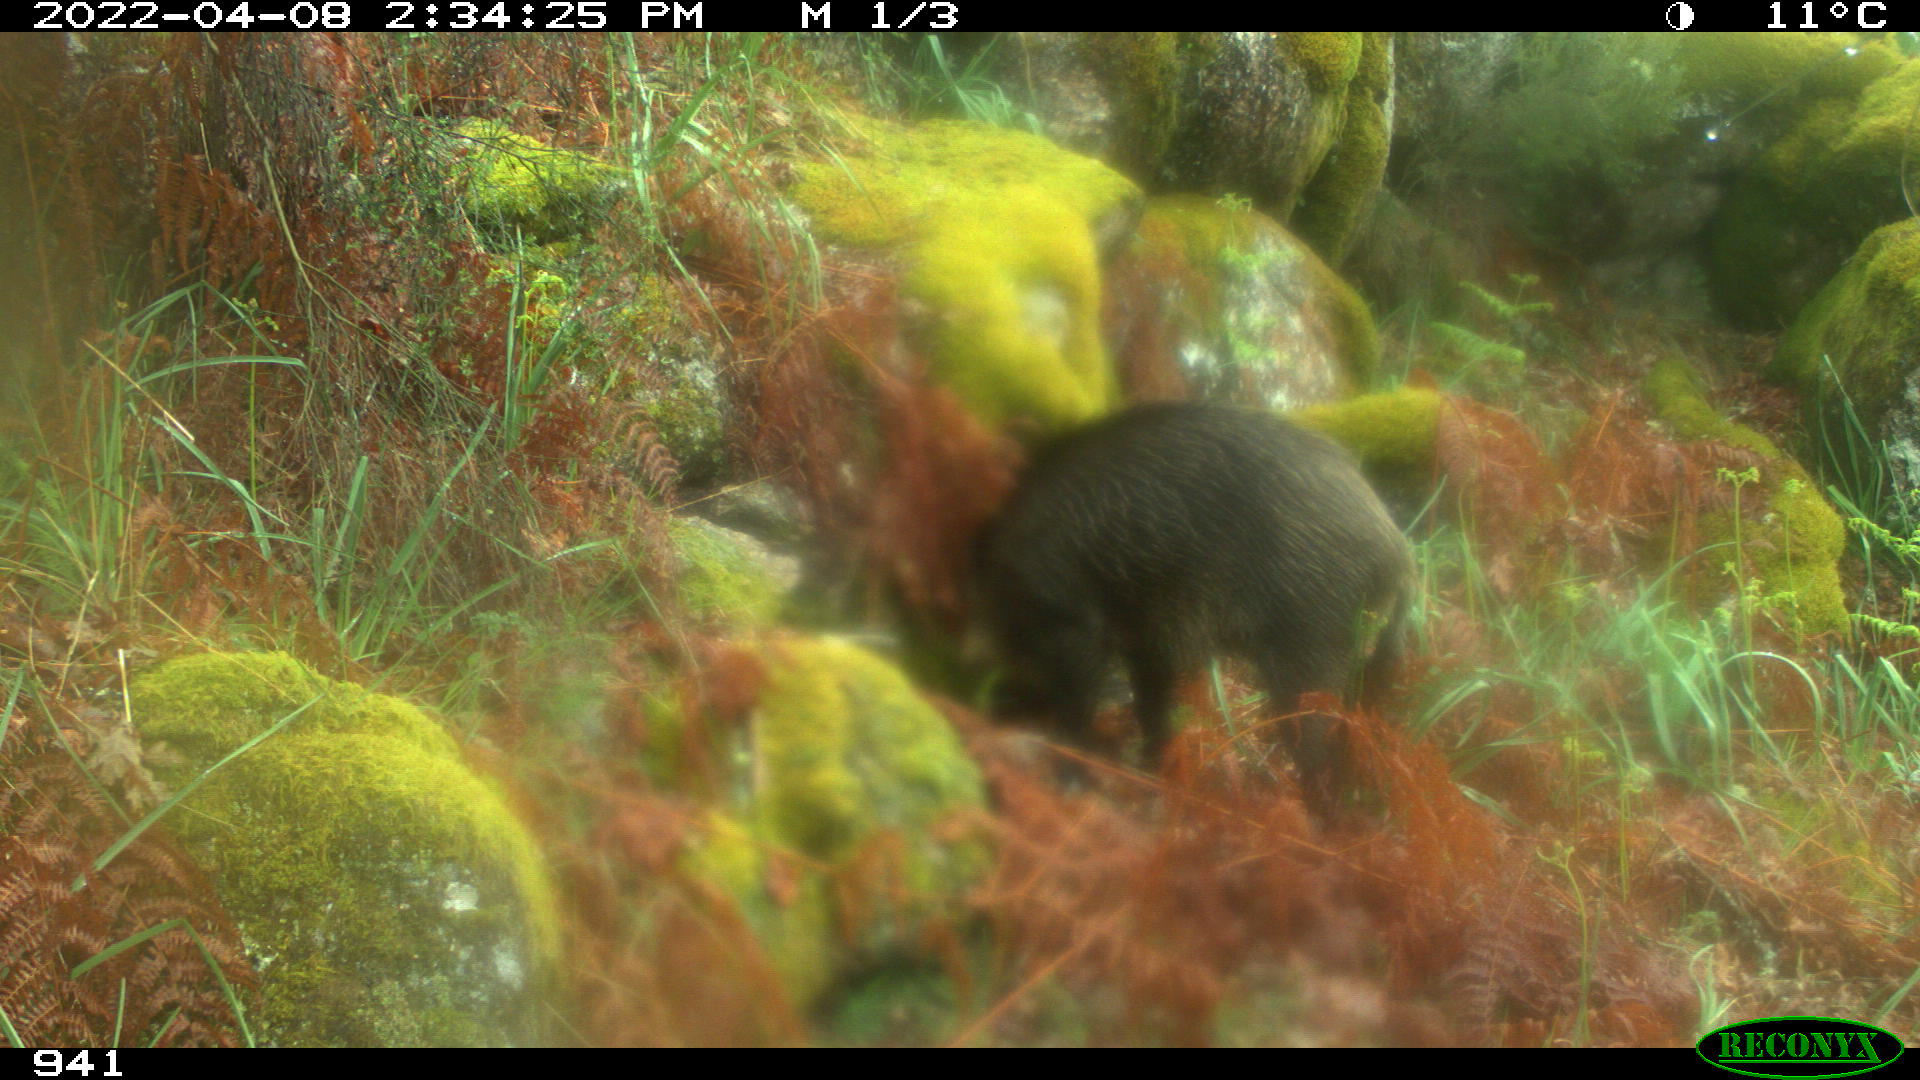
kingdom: Animalia
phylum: Chordata
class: Mammalia
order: Artiodactyla
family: Suidae
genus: Sus
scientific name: Sus scrofa
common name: Wild boar
